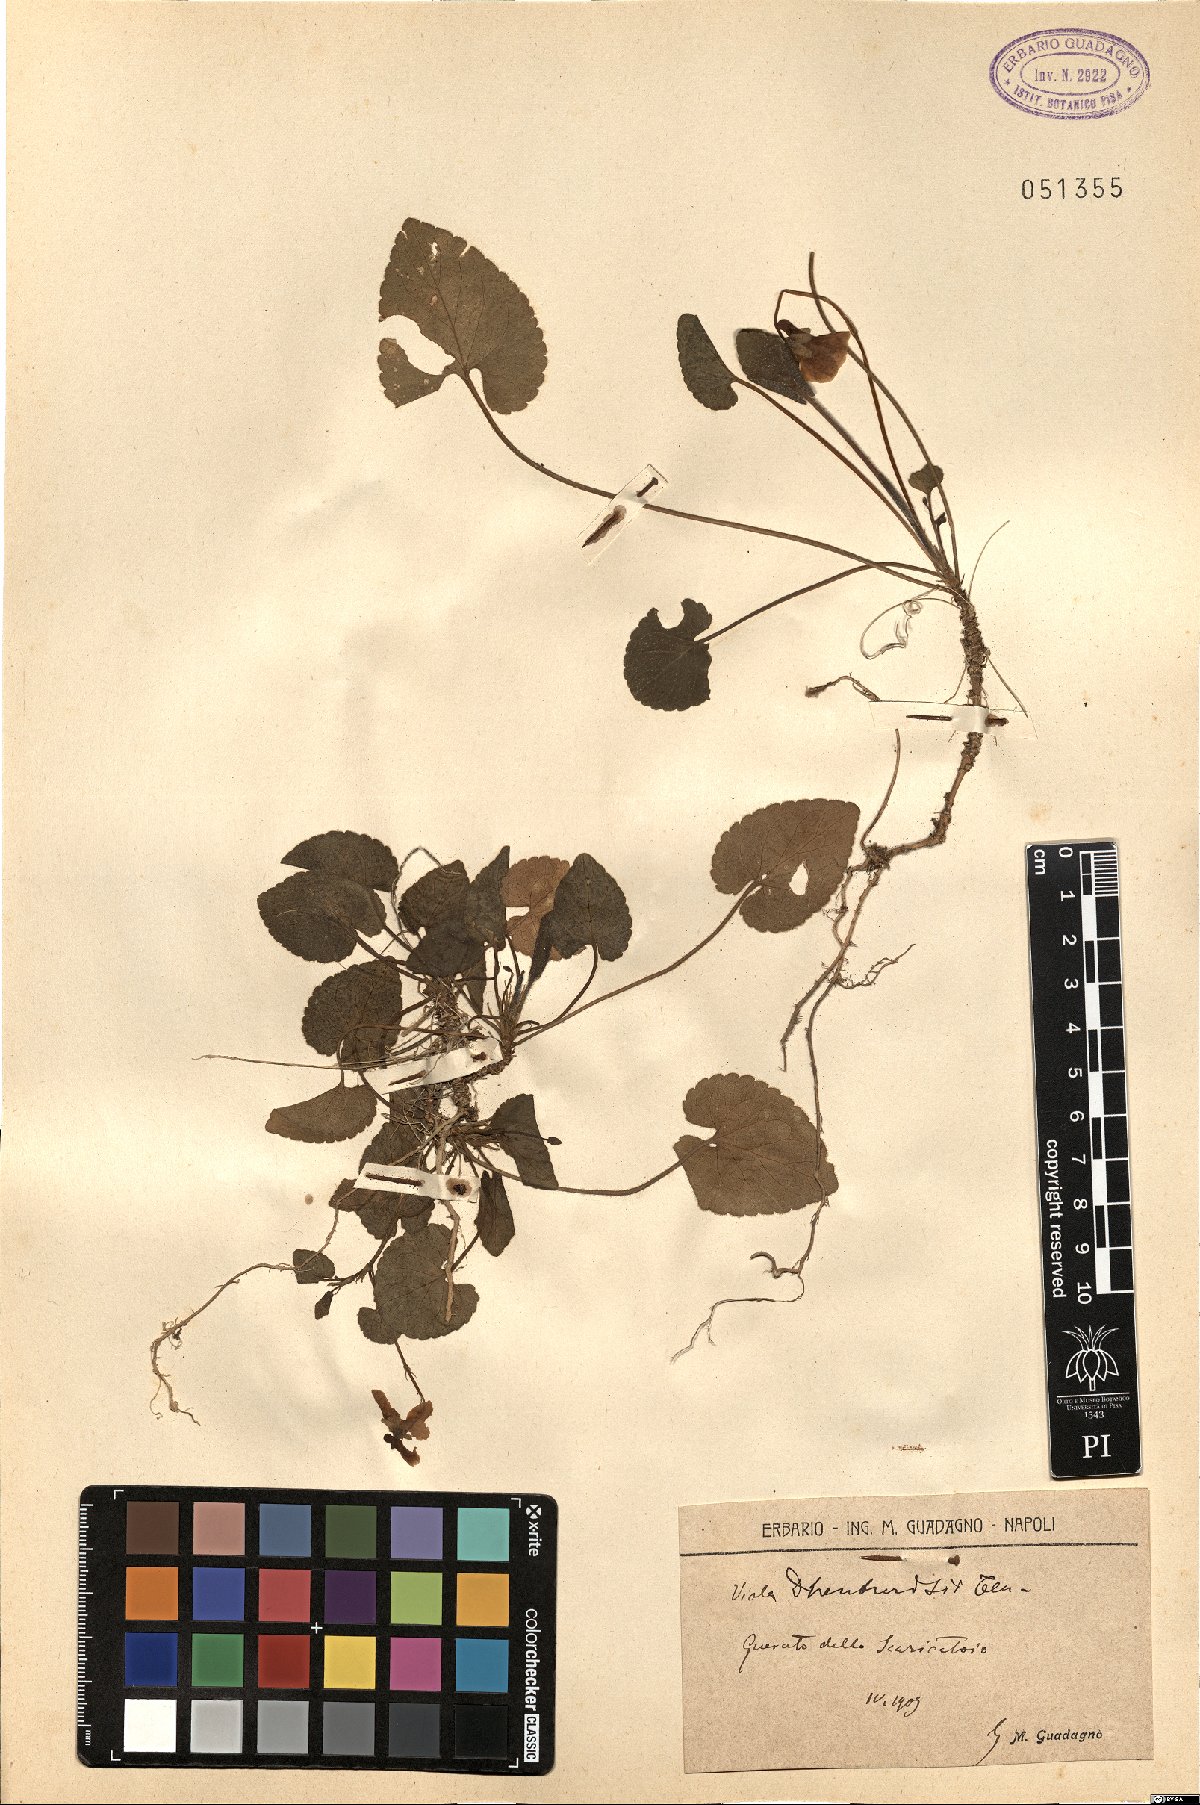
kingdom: Plantae
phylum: Tracheophyta
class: Magnoliopsida
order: Malpighiales
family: Violaceae
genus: Viola
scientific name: Viola alba
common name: White violet
